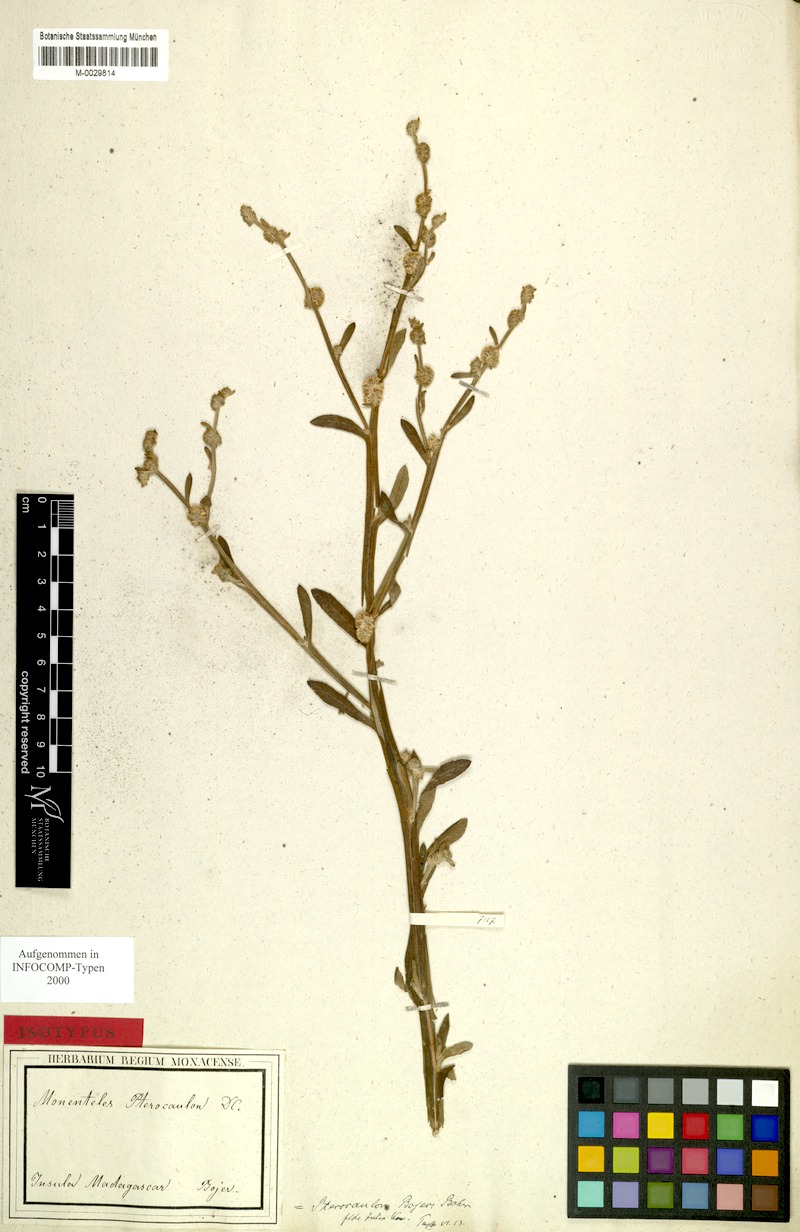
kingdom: Plantae
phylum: Tracheophyta
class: Magnoliopsida
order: Asterales
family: Asteraceae
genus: Neojeffreya
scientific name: Neojeffreya decurrens
